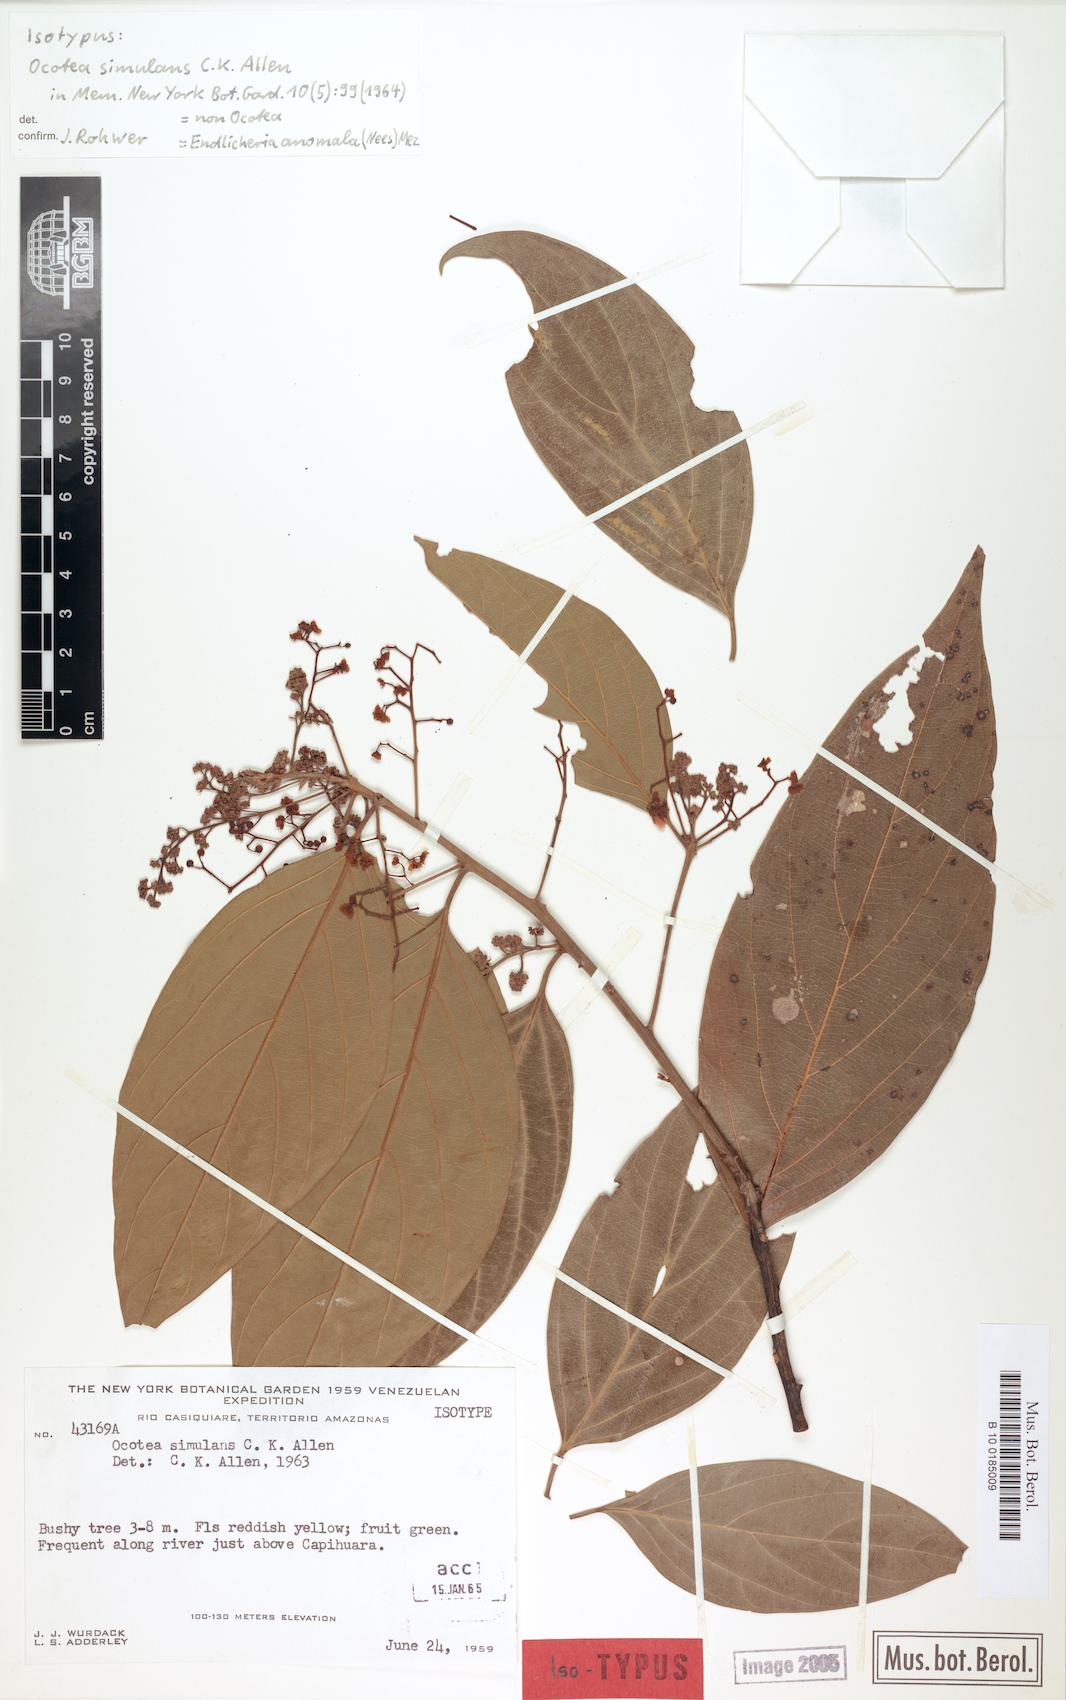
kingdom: Plantae
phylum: Tracheophyta
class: Magnoliopsida
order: Laurales
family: Lauraceae
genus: Endlicheria
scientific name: Endlicheria anomala
